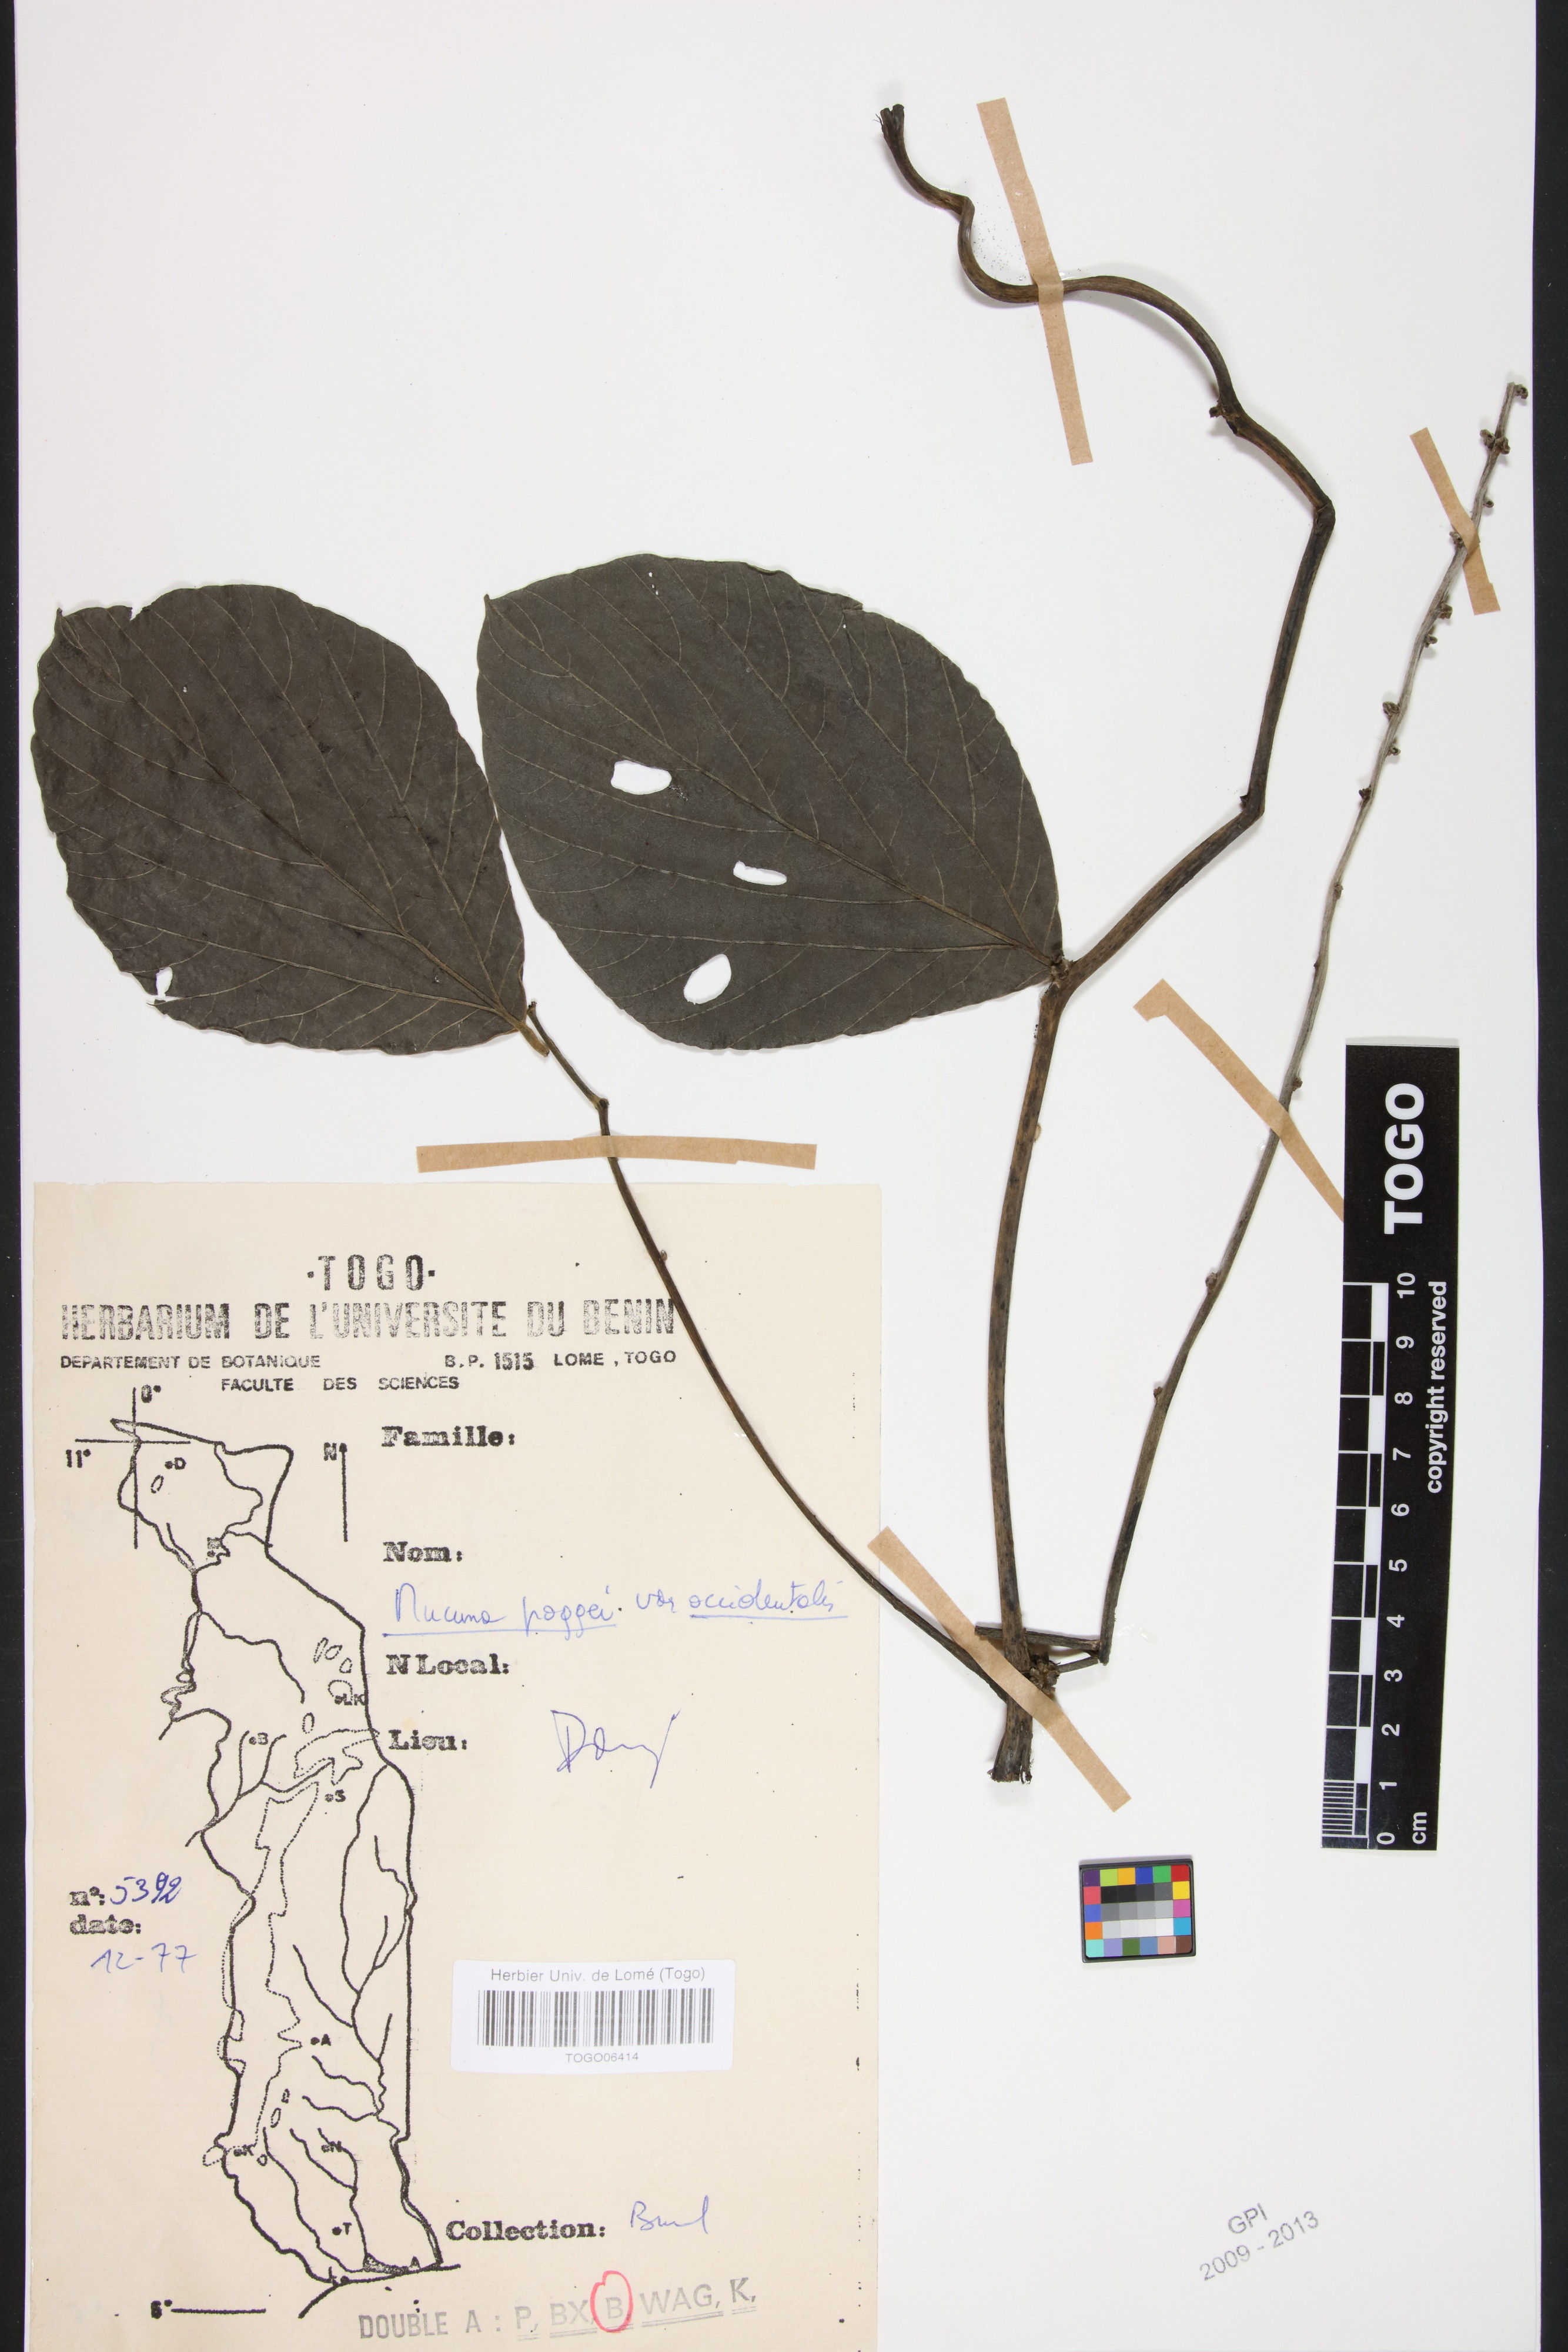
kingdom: Plantae
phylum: Tracheophyta
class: Magnoliopsida
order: Fabales
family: Fabaceae
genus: Mucuna
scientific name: Mucuna poggei
